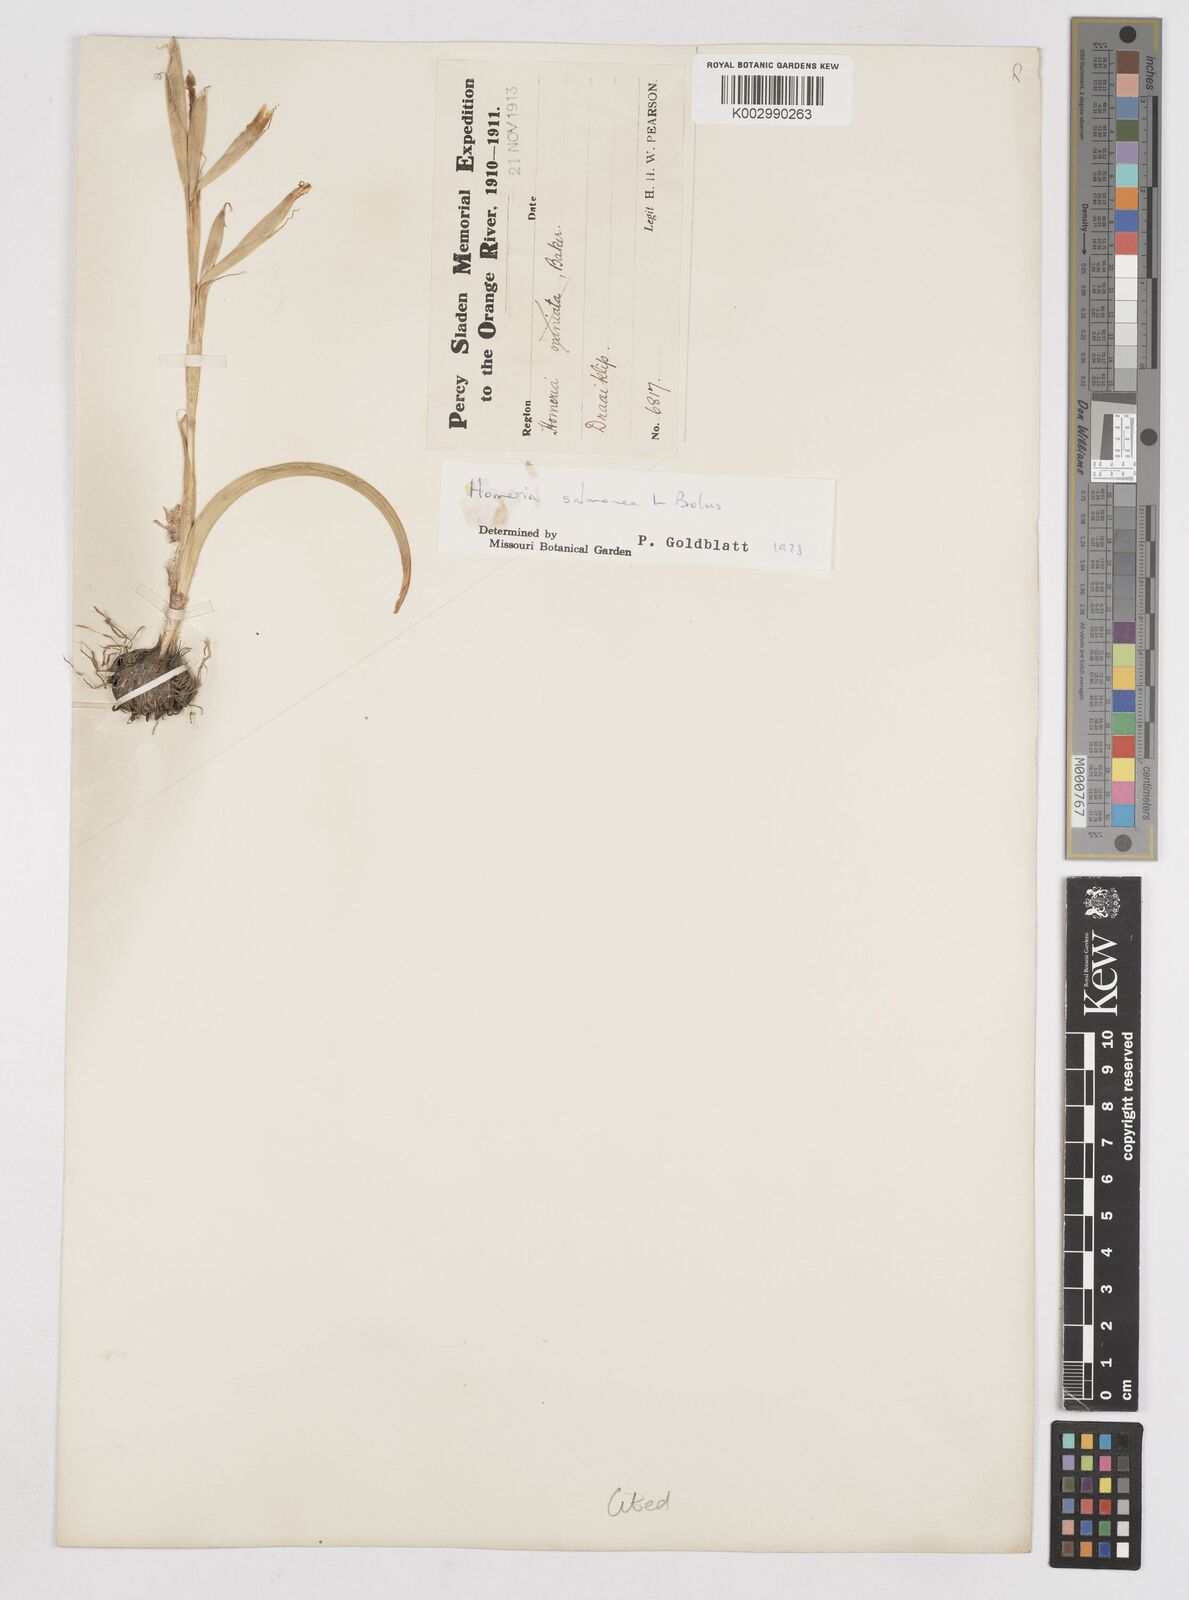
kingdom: Plantae
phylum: Tracheophyta
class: Liliopsida
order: Asparagales
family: Iridaceae
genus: Moraea
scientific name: Moraea bifida
